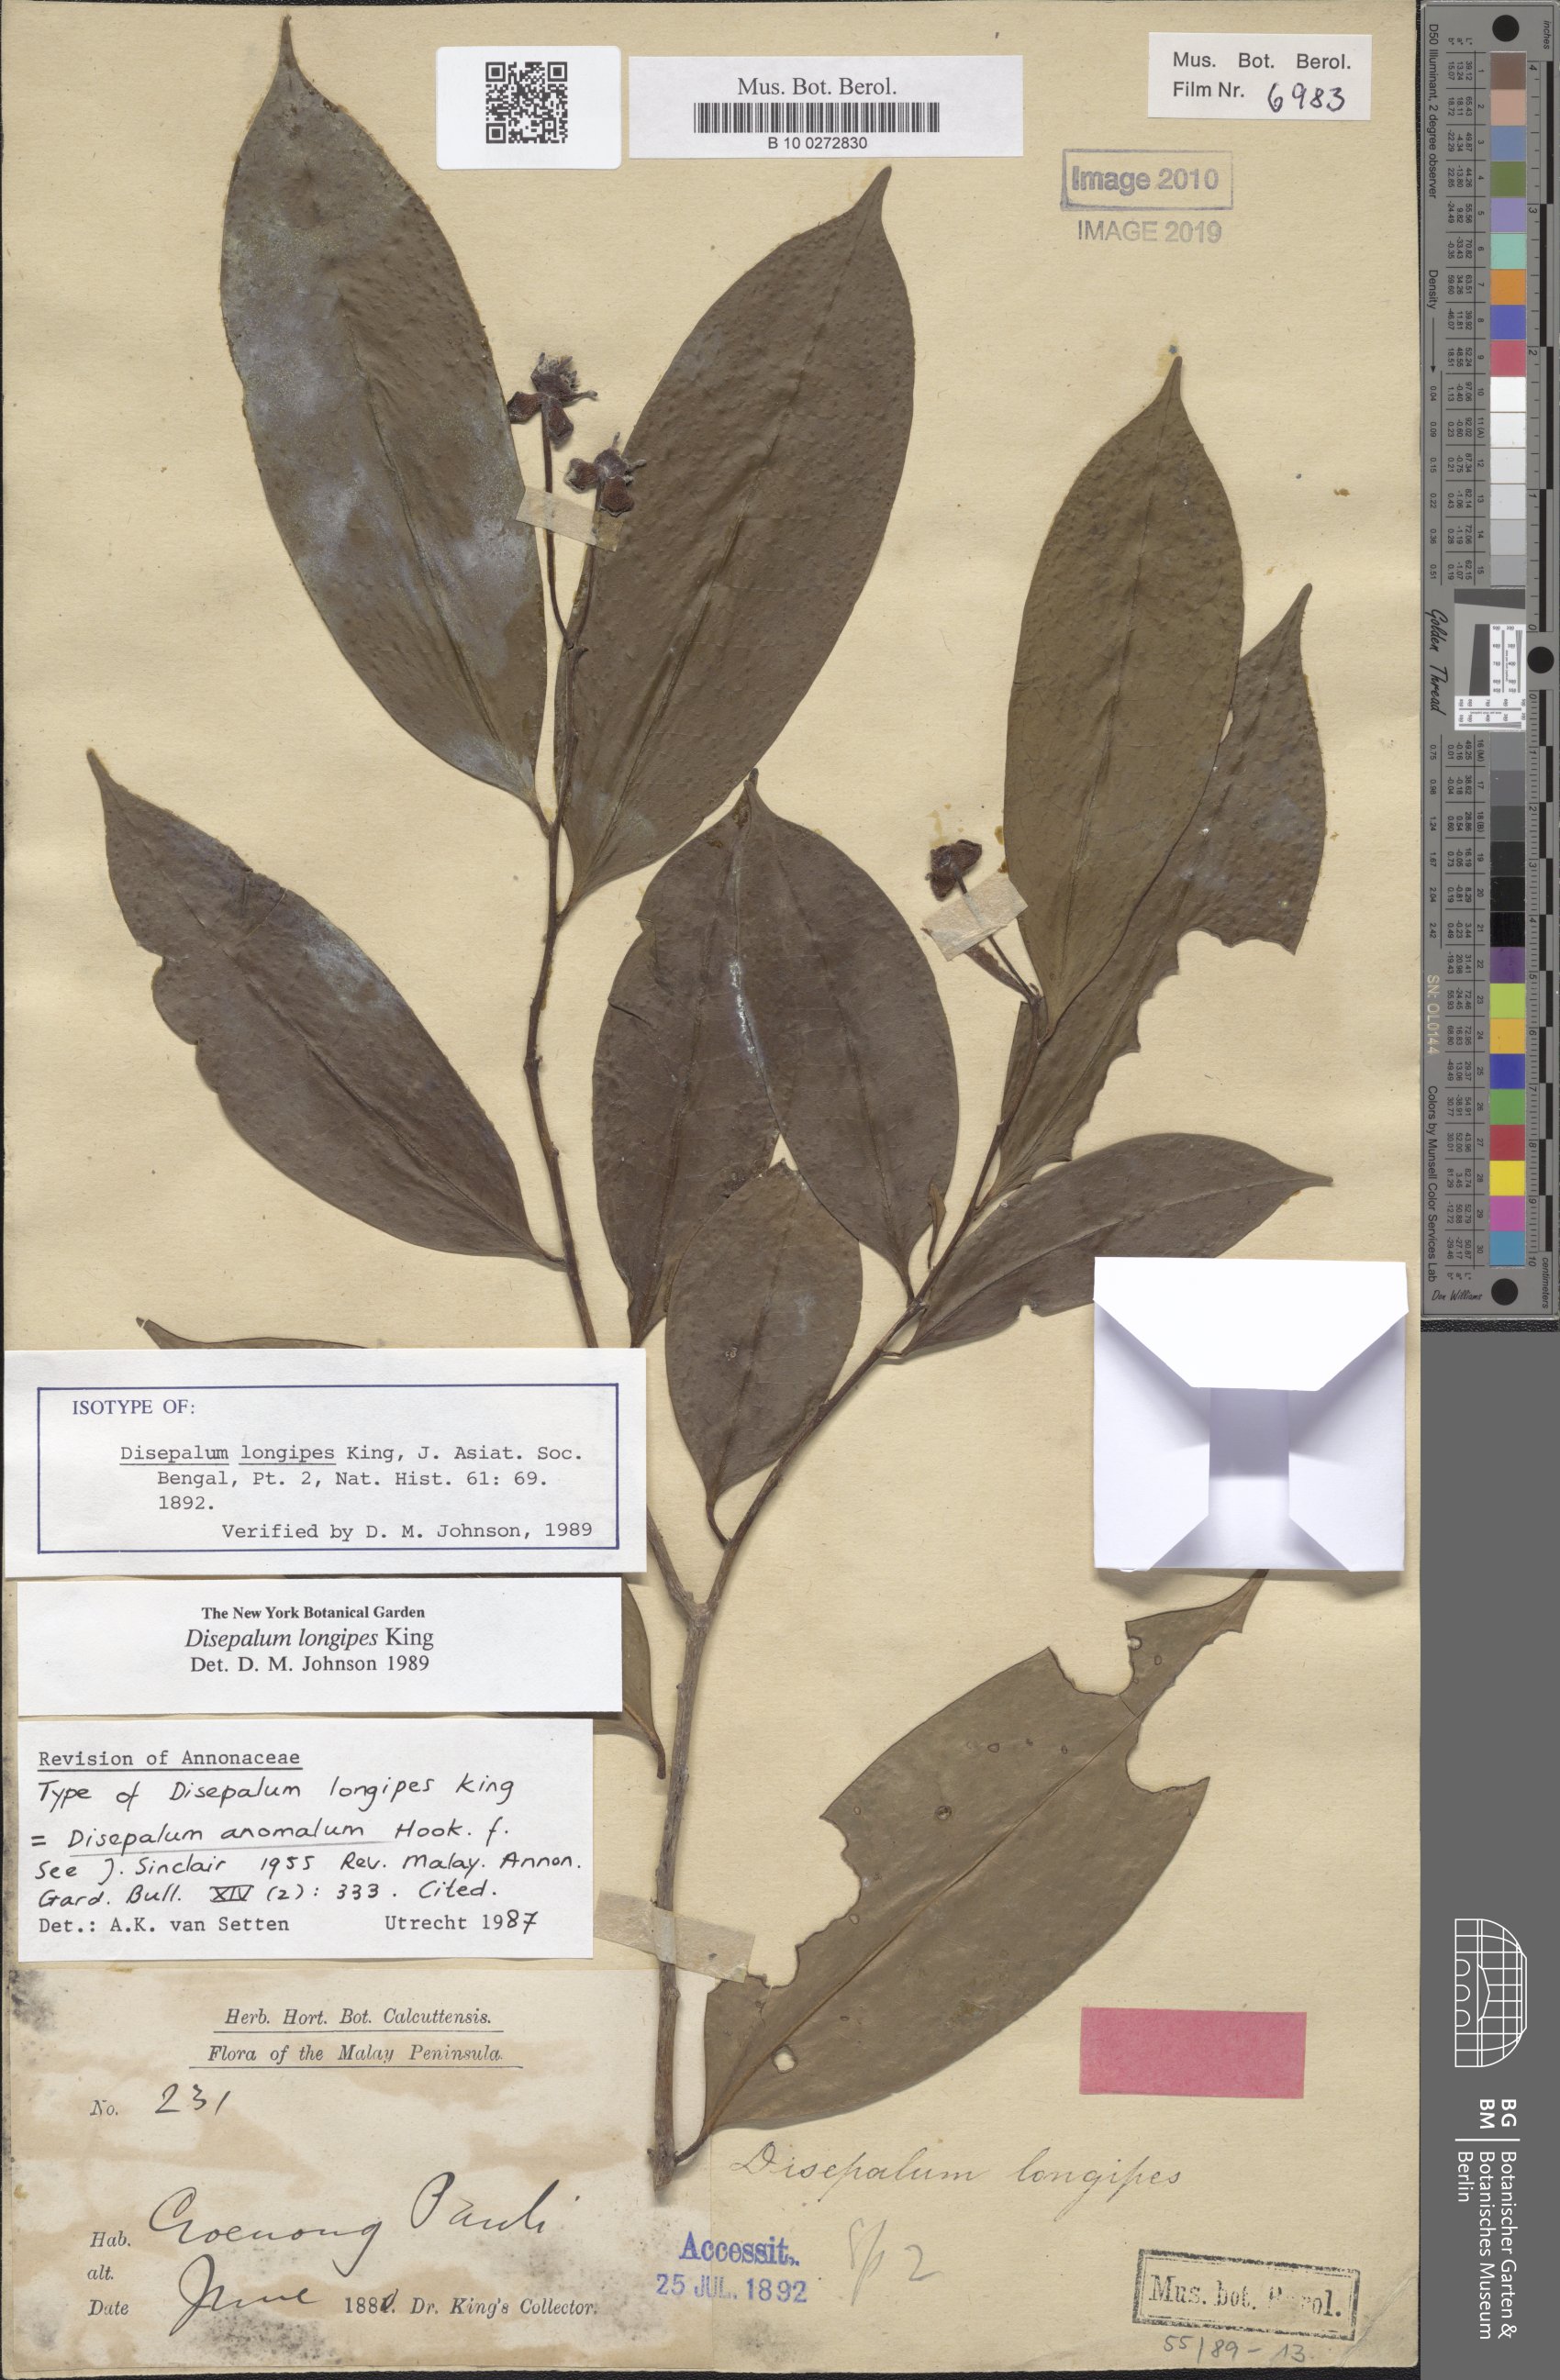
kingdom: Plantae
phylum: Tracheophyta
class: Magnoliopsida
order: Magnoliales
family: Annonaceae
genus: Disepalum
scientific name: Disepalum anomalum
